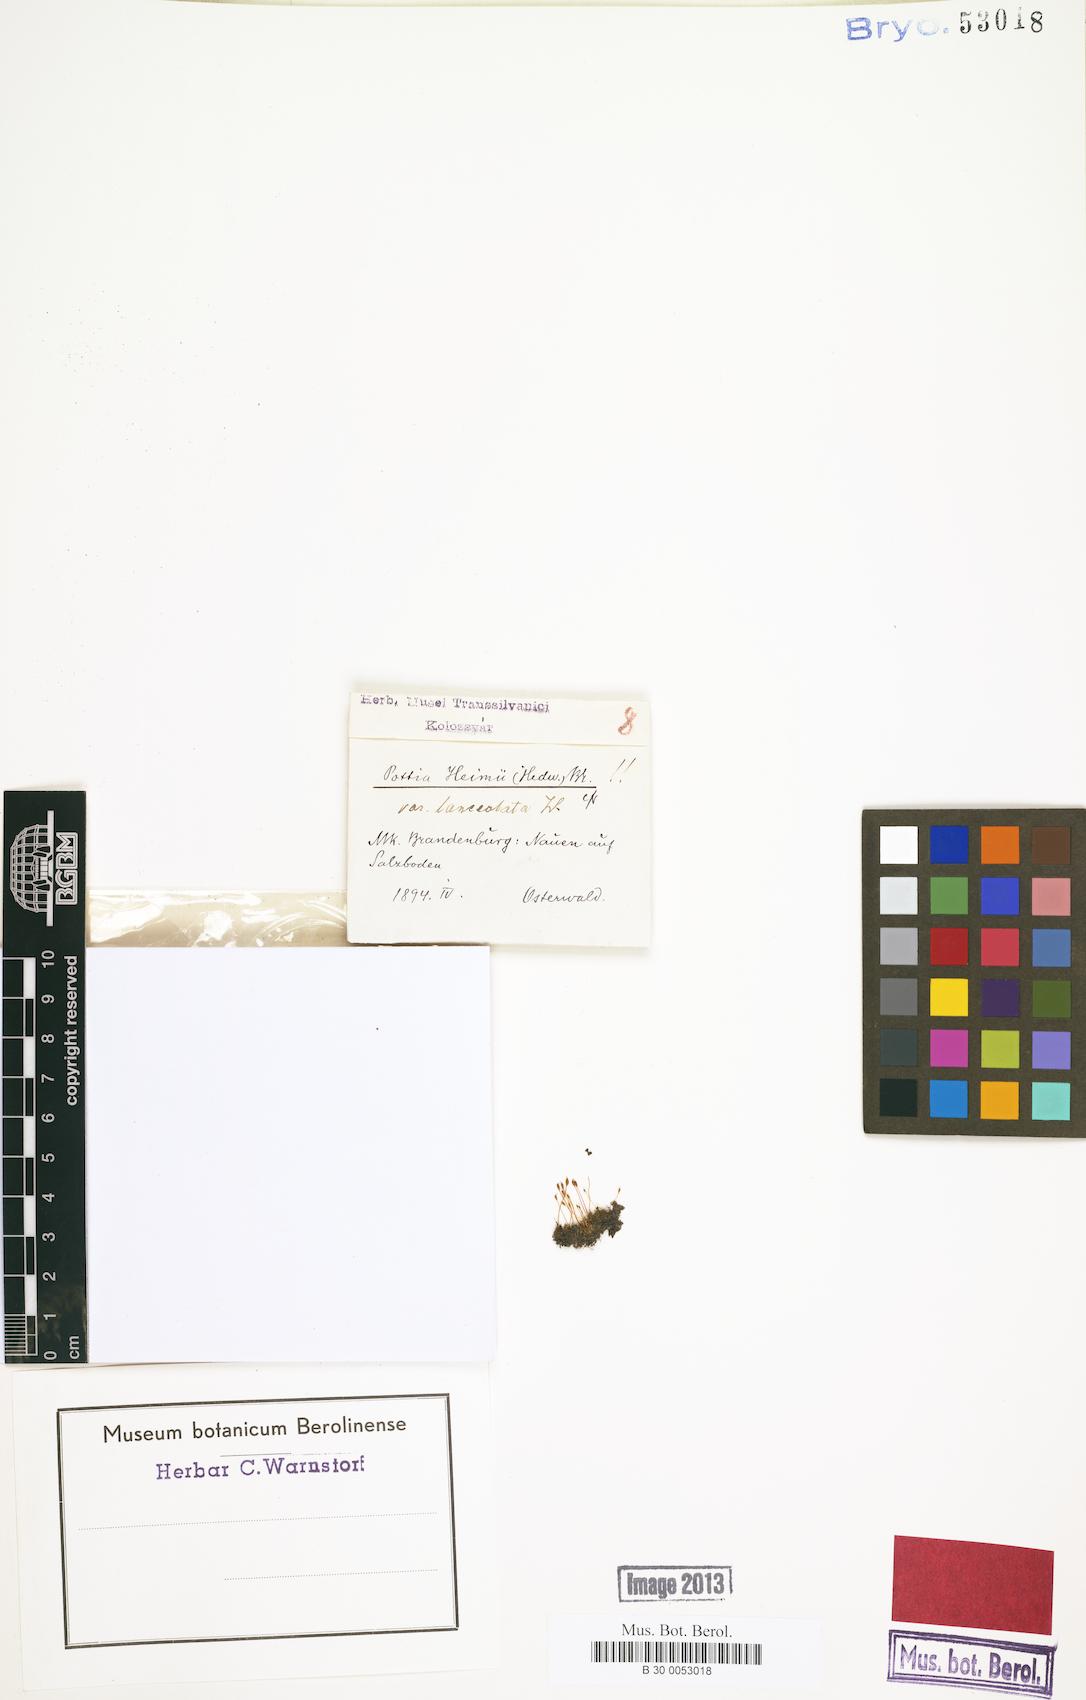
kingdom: Plantae
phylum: Bryophyta
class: Bryopsida
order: Pottiales
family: Pottiaceae
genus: Hennediella
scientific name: Hennediella heimii
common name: Heim's pottia
